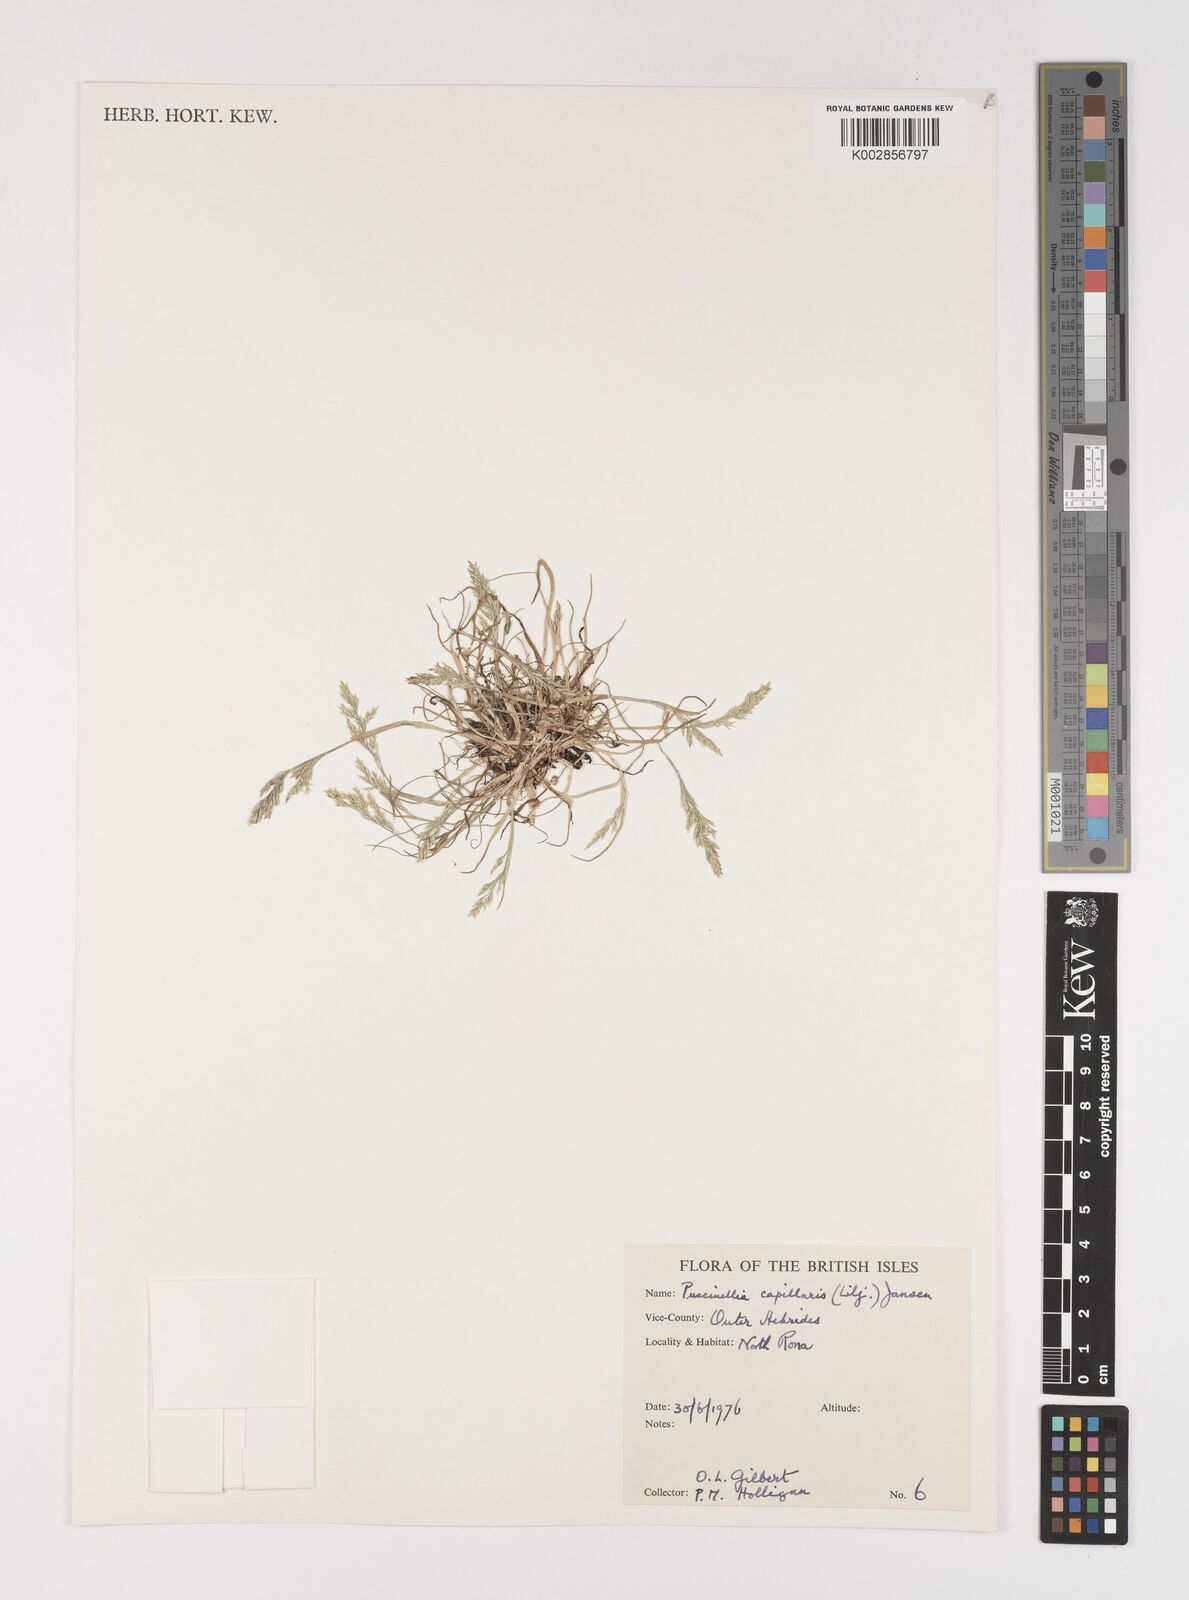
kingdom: Plantae
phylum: Tracheophyta
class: Liliopsida
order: Poales
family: Poaceae
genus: Puccinellia
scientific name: Puccinellia distans
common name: Weeping alkaligrass
